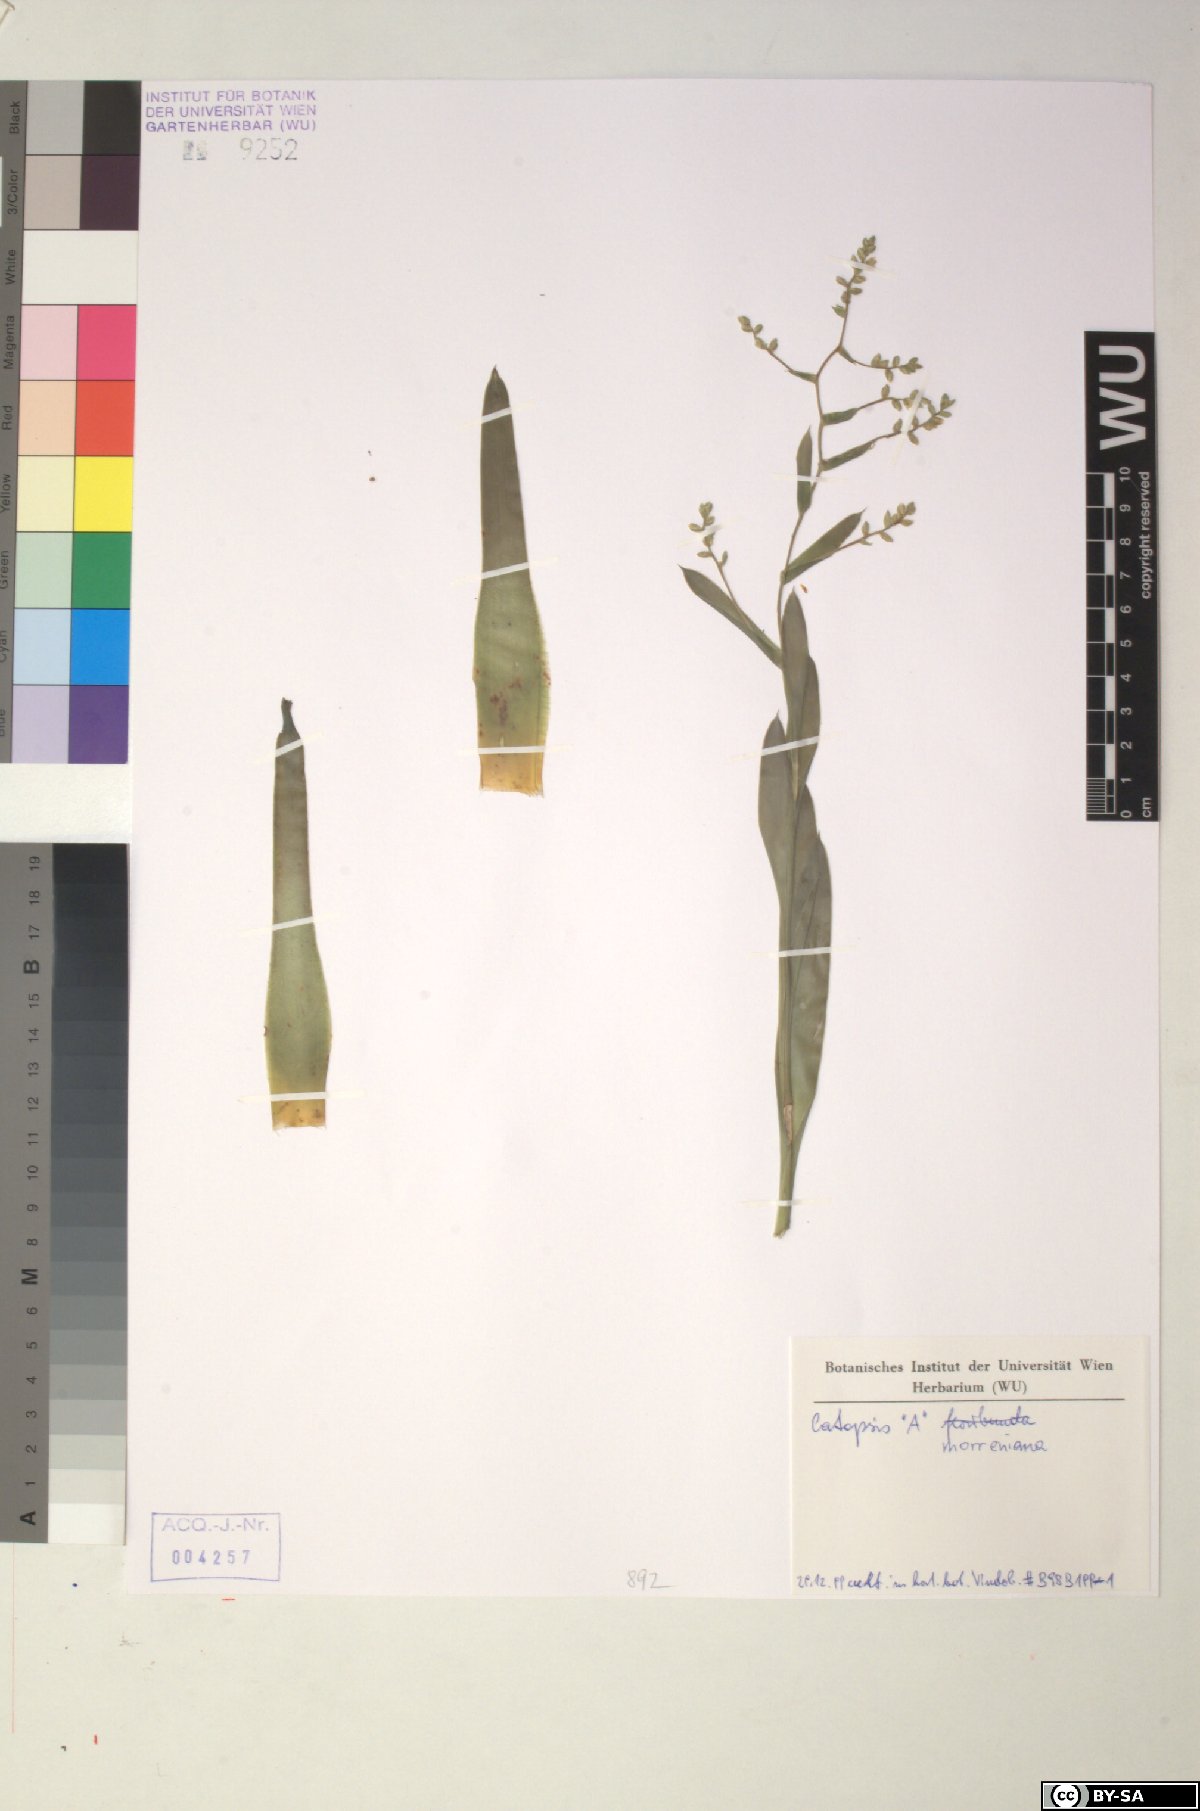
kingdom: Plantae
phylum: Tracheophyta
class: Liliopsida
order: Poales
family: Bromeliaceae
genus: Catopsis
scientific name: Catopsis morreniana
